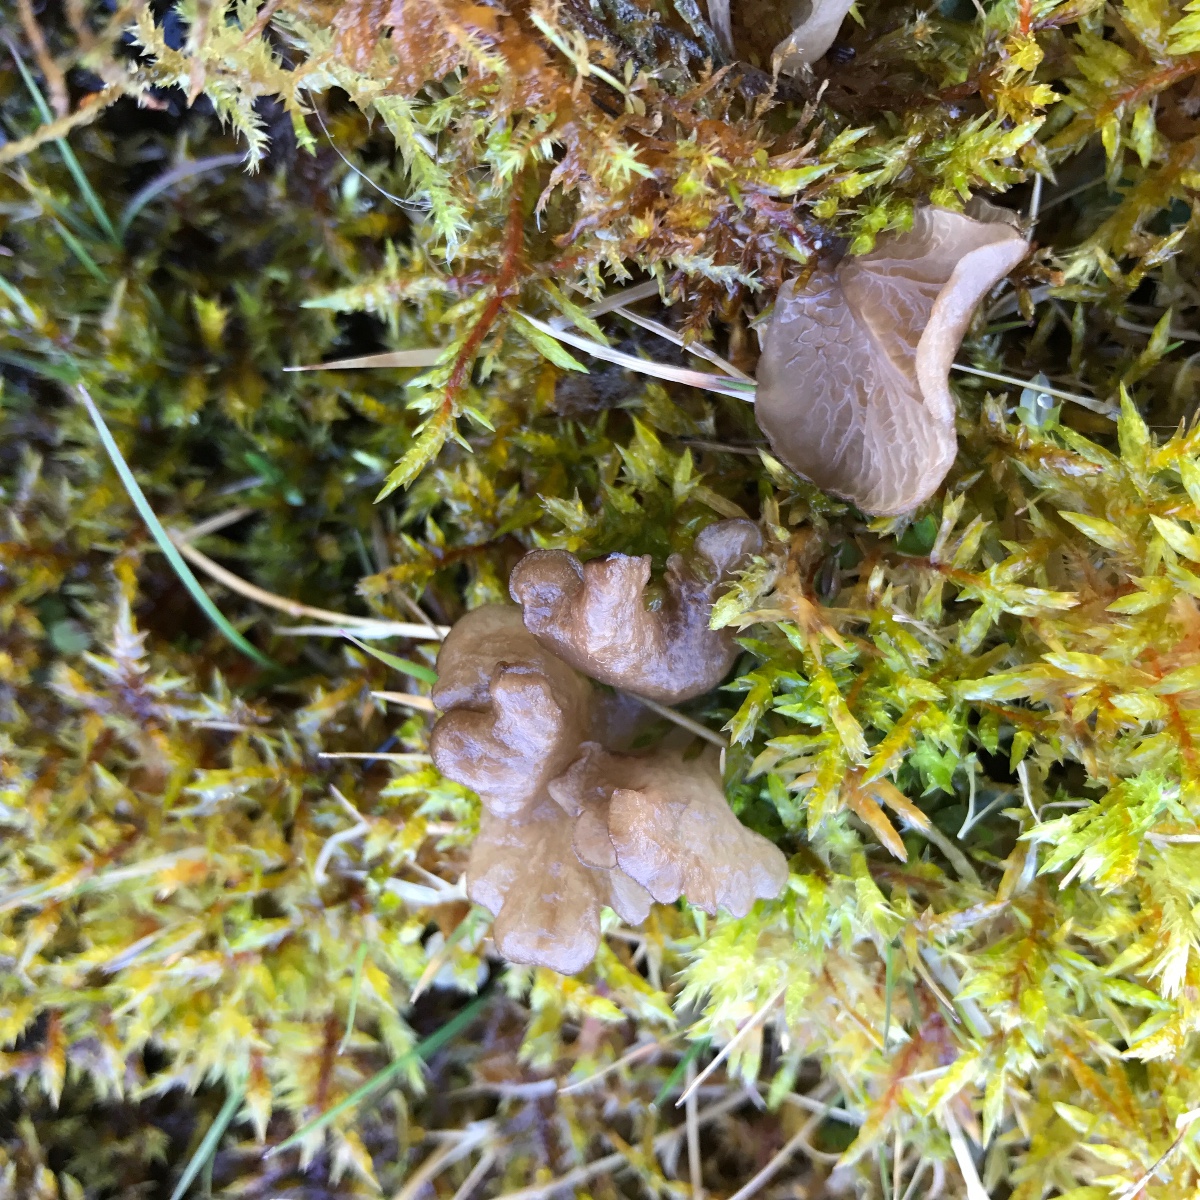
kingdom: Fungi
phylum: Basidiomycota
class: Agaricomycetes
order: Agaricales
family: Hygrophoraceae
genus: Arrhenia
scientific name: Arrhenia lobata
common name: siddende fontænehat
